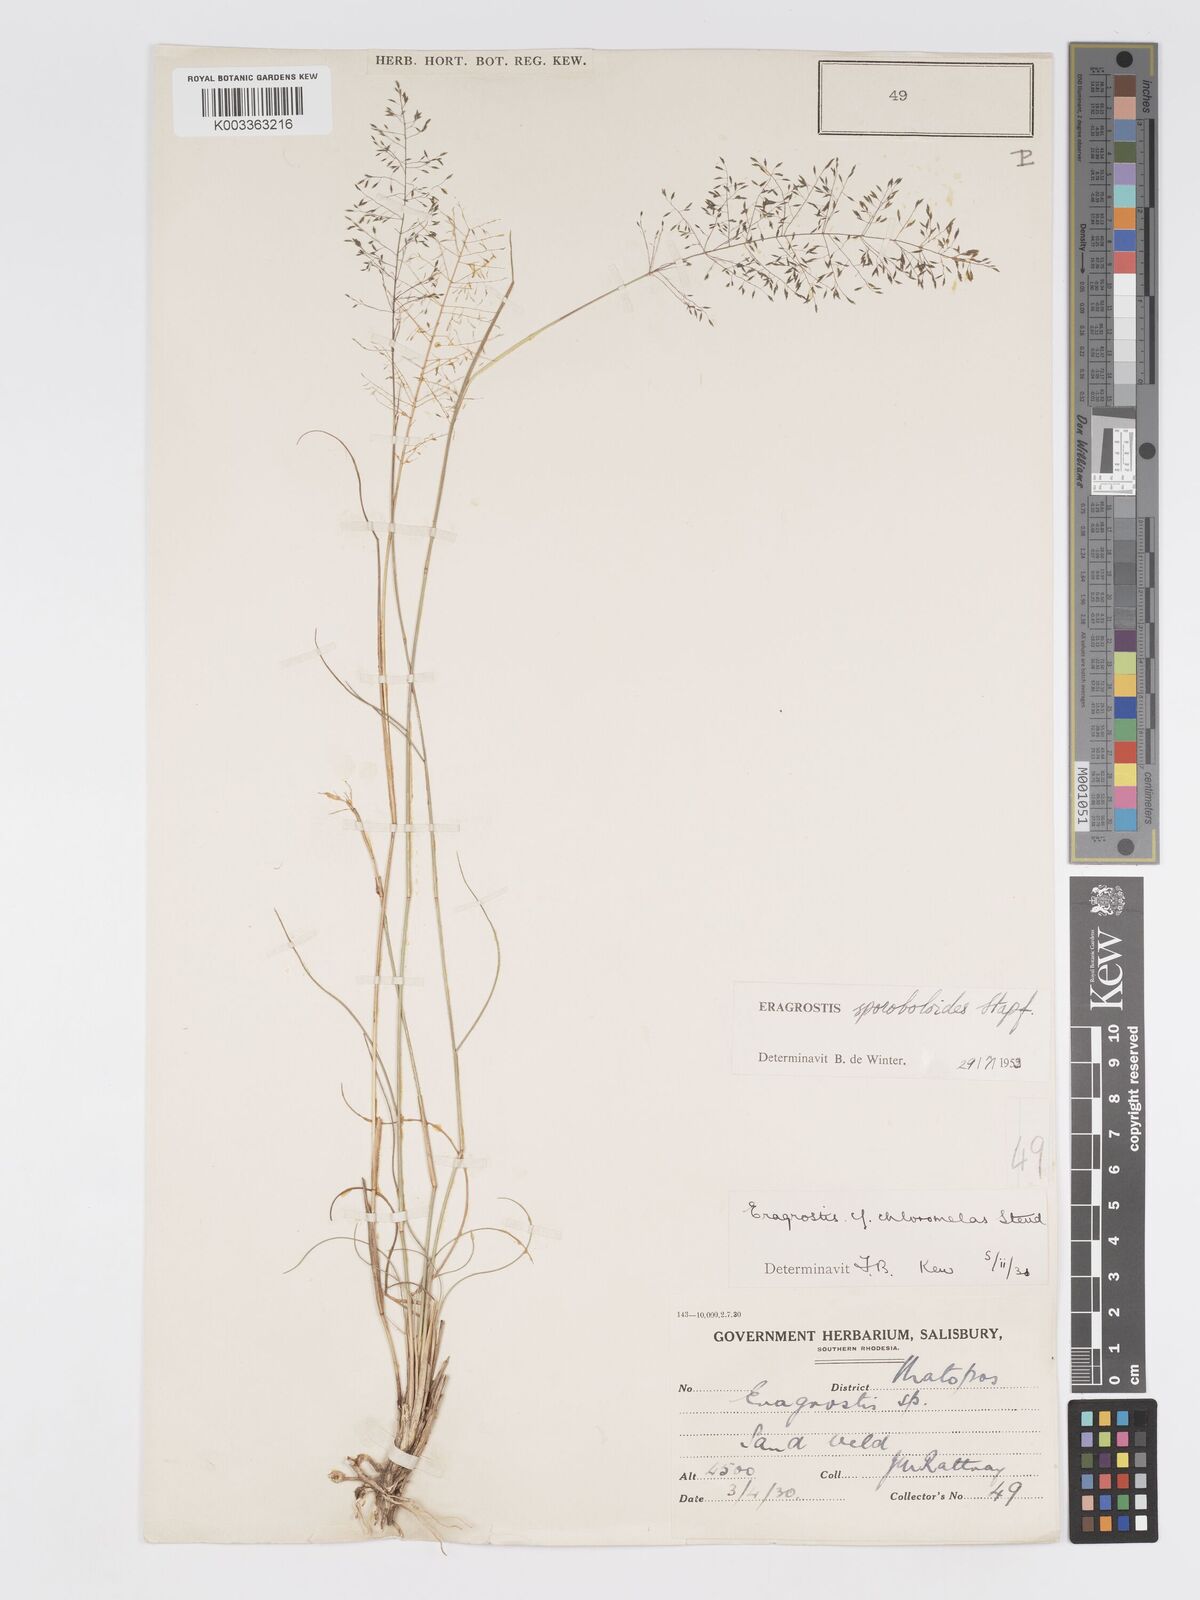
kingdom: Plantae
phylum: Tracheophyta
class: Liliopsida
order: Poales
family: Poaceae
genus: Eragrostis
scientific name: Eragrostis stapfii
